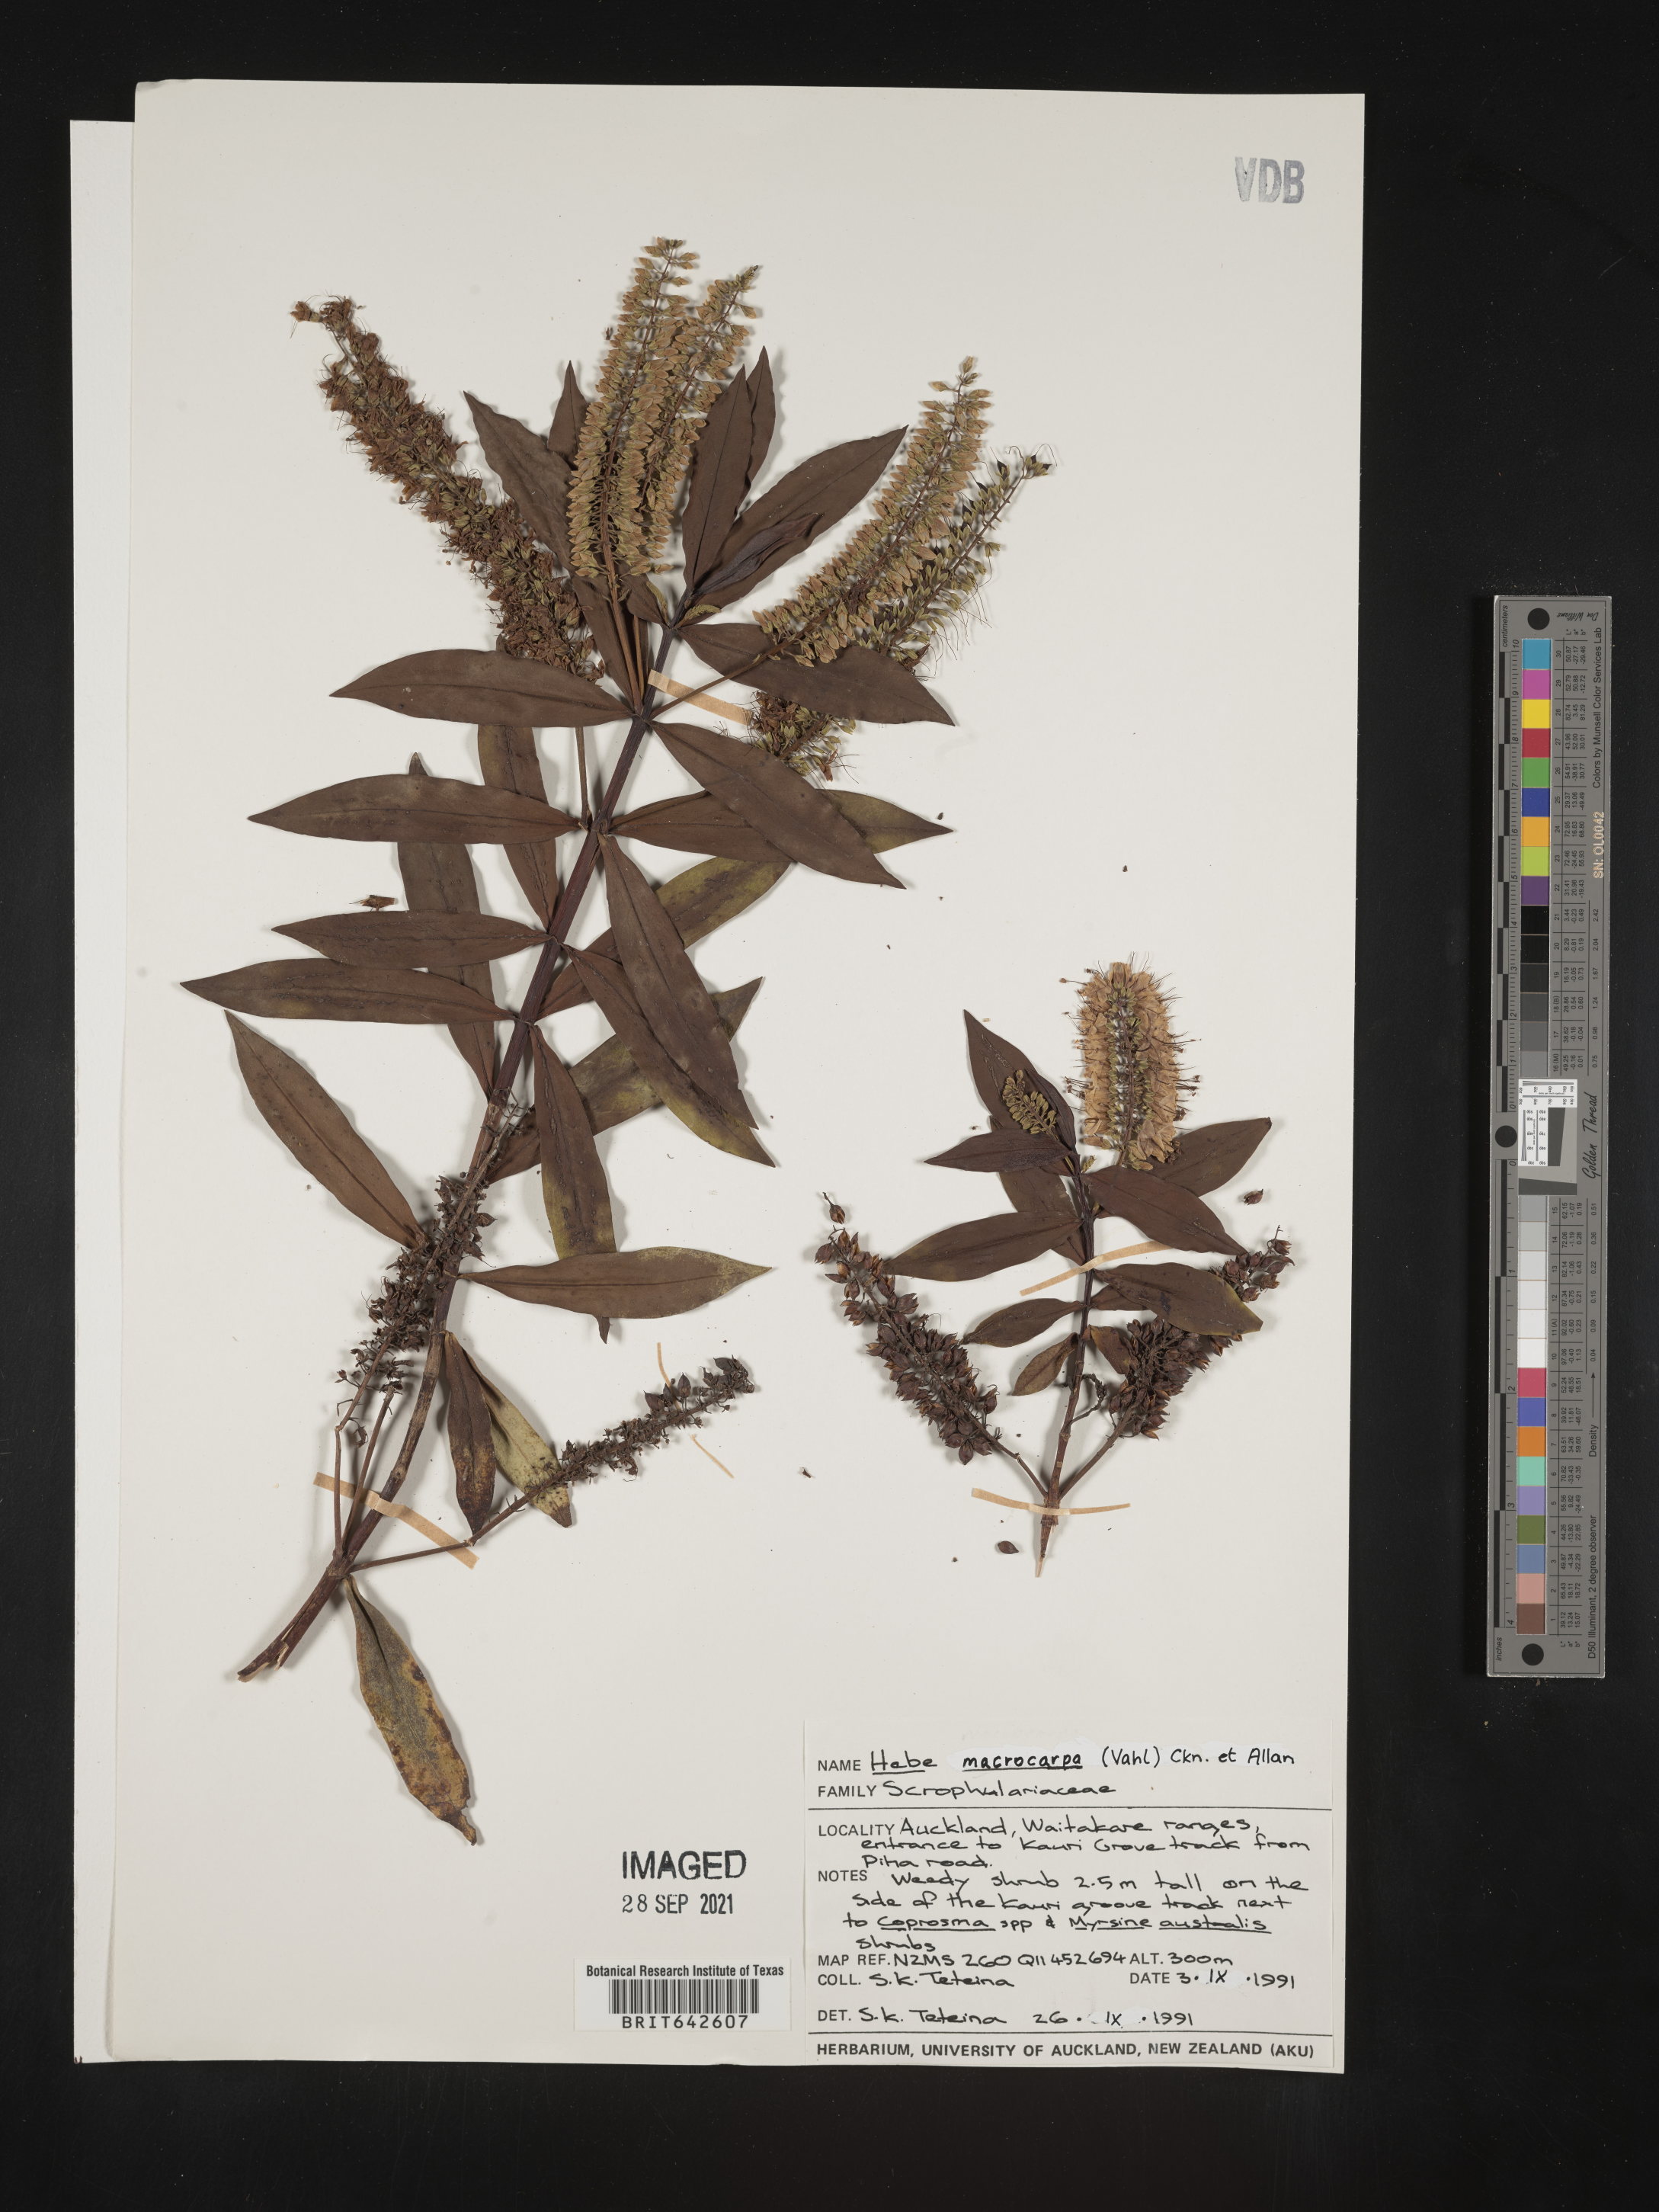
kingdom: Plantae
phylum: Tracheophyta
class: Magnoliopsida
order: Lamiales
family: Plantaginaceae
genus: Veronica
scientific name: Veronica
